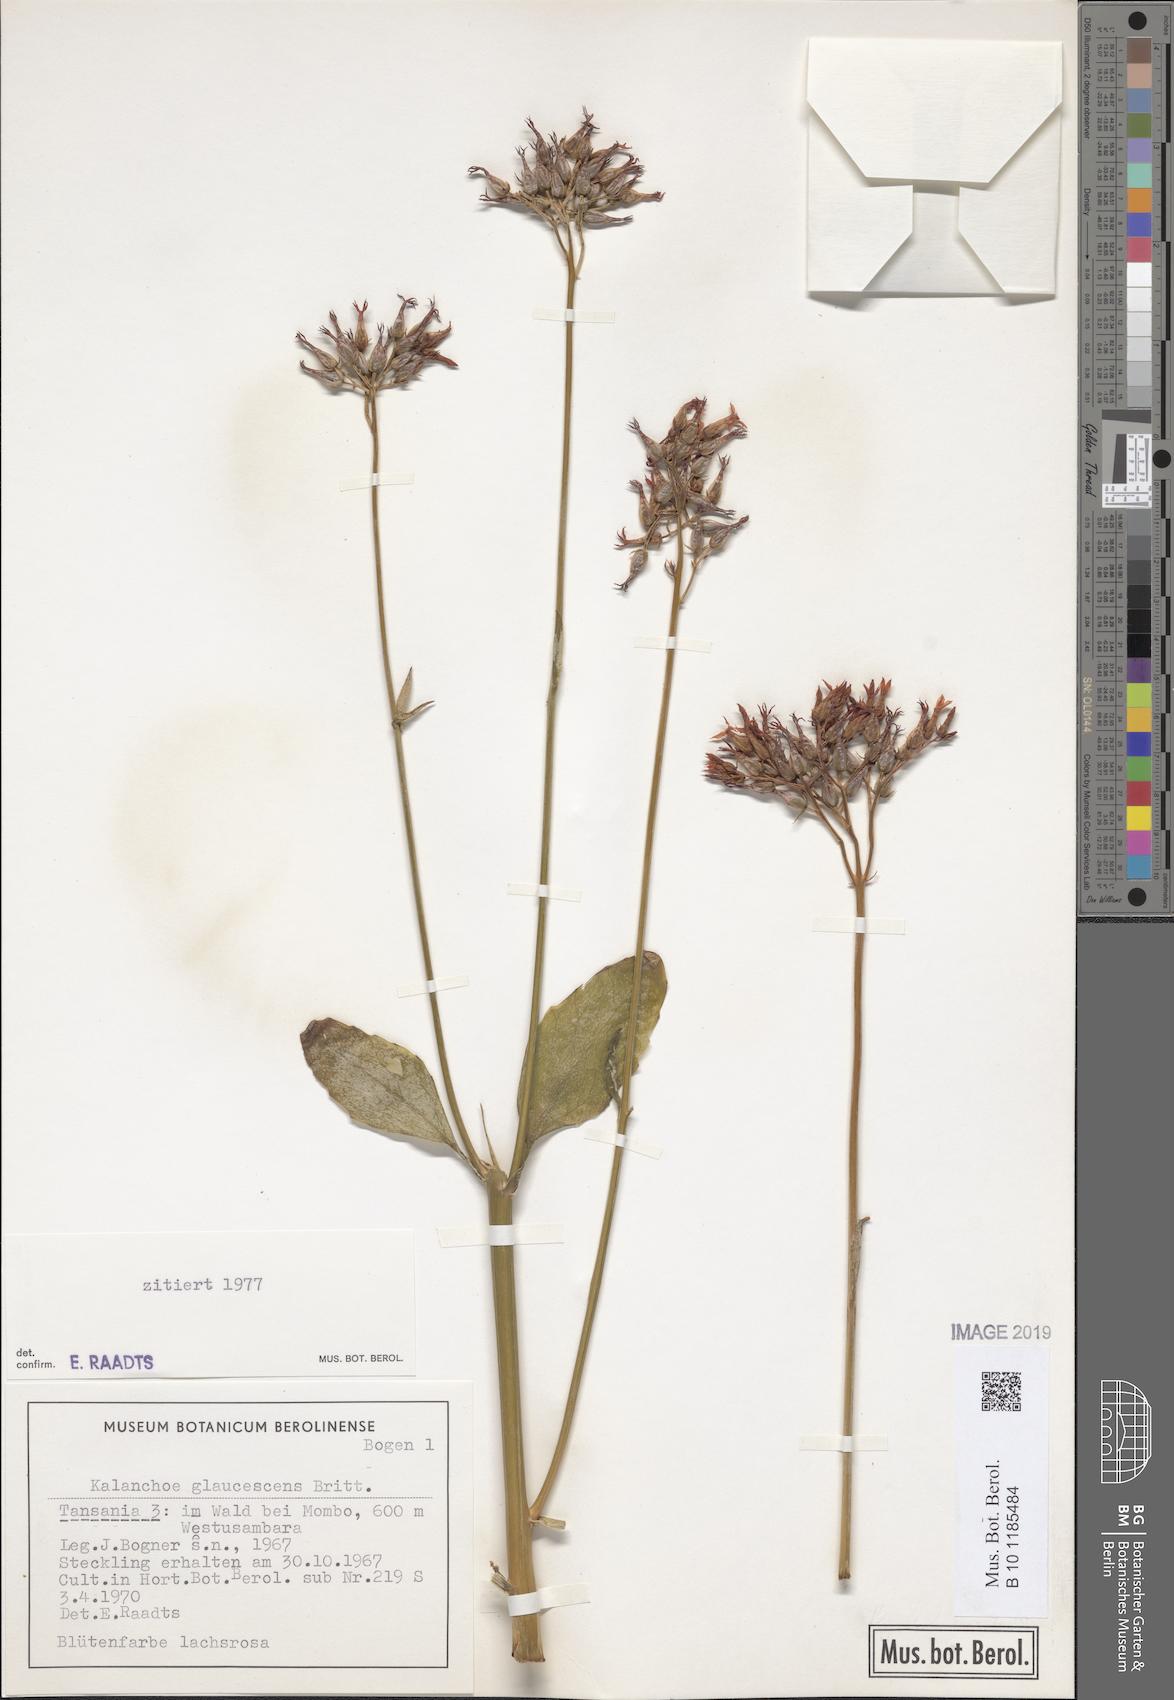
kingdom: Plantae
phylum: Tracheophyta
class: Magnoliopsida
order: Saxifragales
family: Crassulaceae
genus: Kalanchoe
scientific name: Kalanchoe glaucescens
